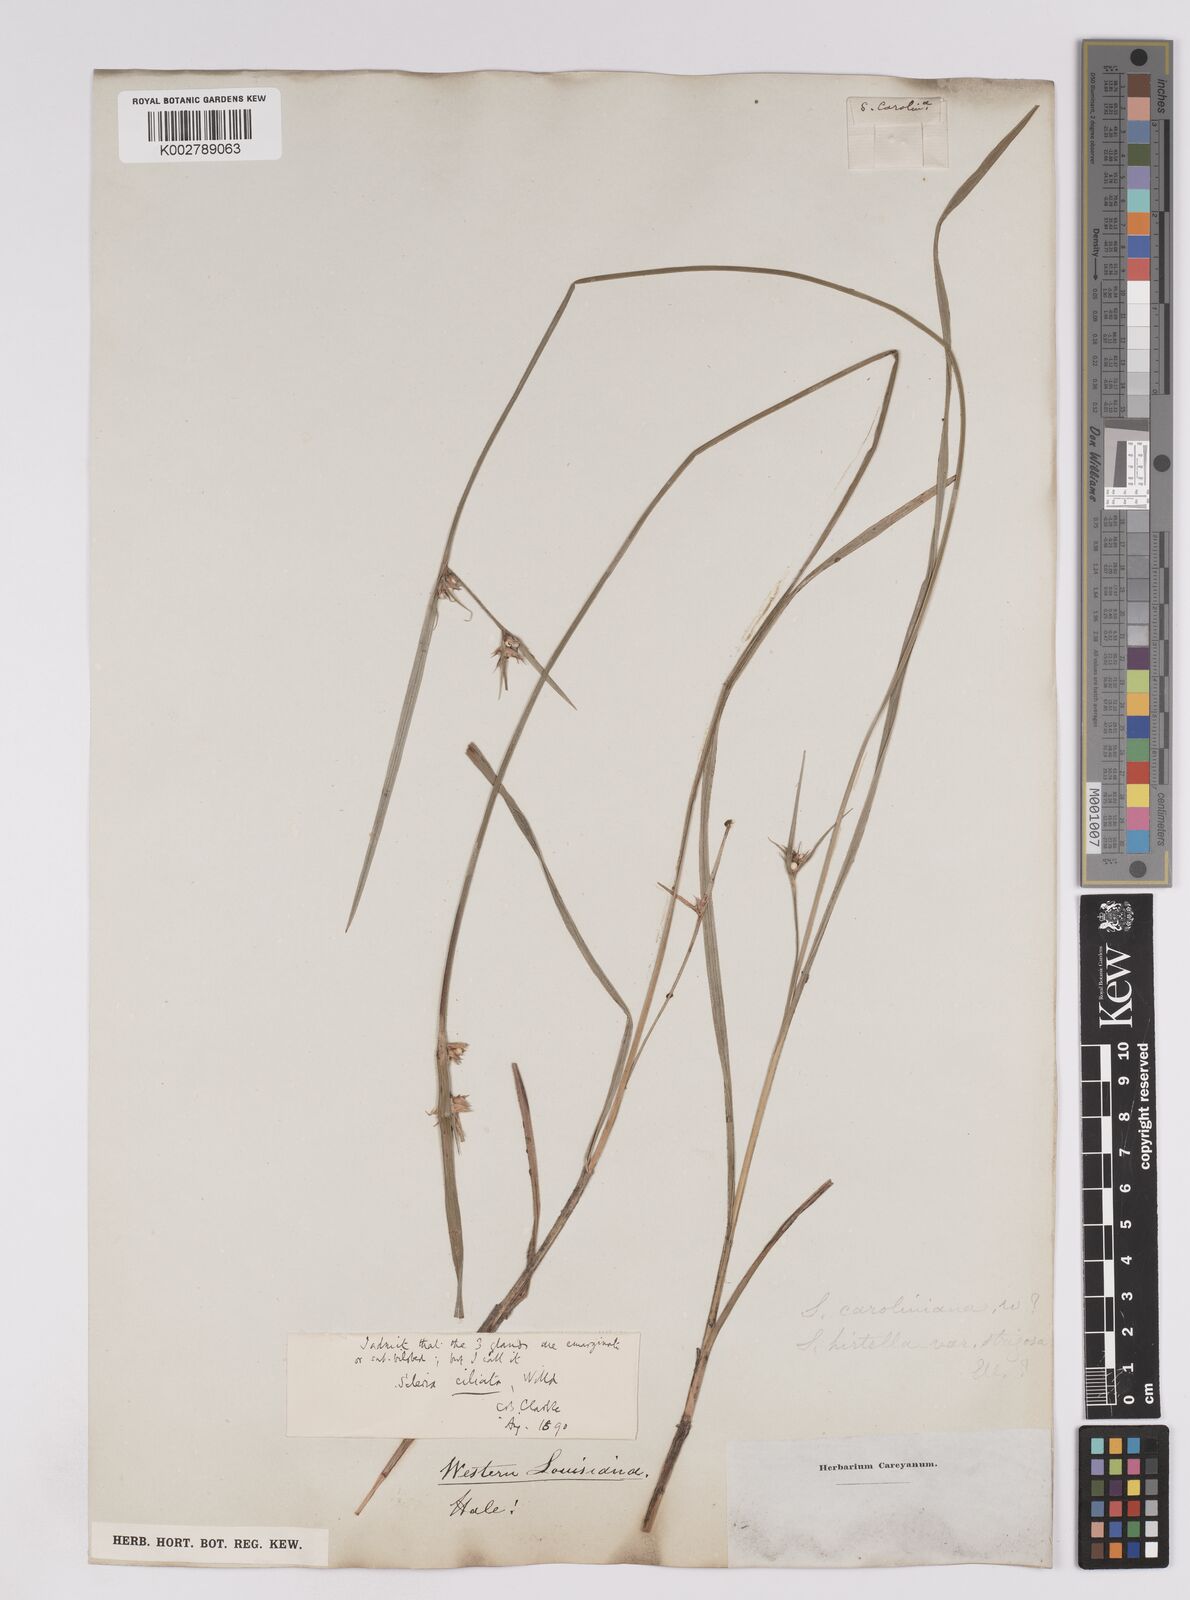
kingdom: Plantae
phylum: Tracheophyta
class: Liliopsida
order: Poales
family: Cyperaceae
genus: Scleria
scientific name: Scleria ciliata
